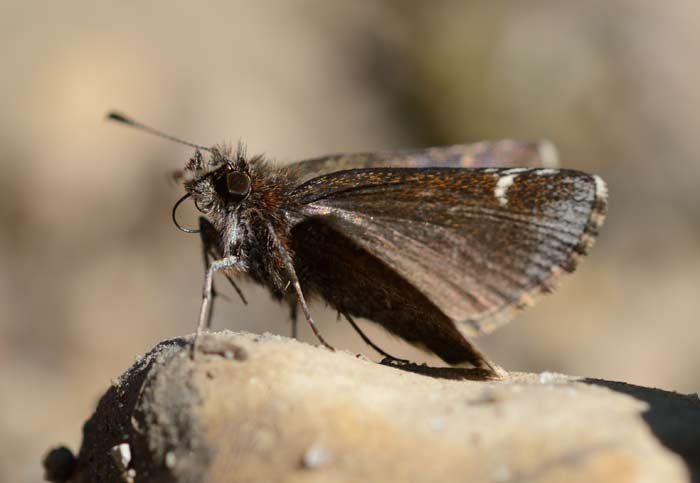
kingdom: Animalia
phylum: Arthropoda
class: Insecta
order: Lepidoptera
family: Hesperiidae
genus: Mastor
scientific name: Mastor vialis
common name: Common Roadside-Skipper
